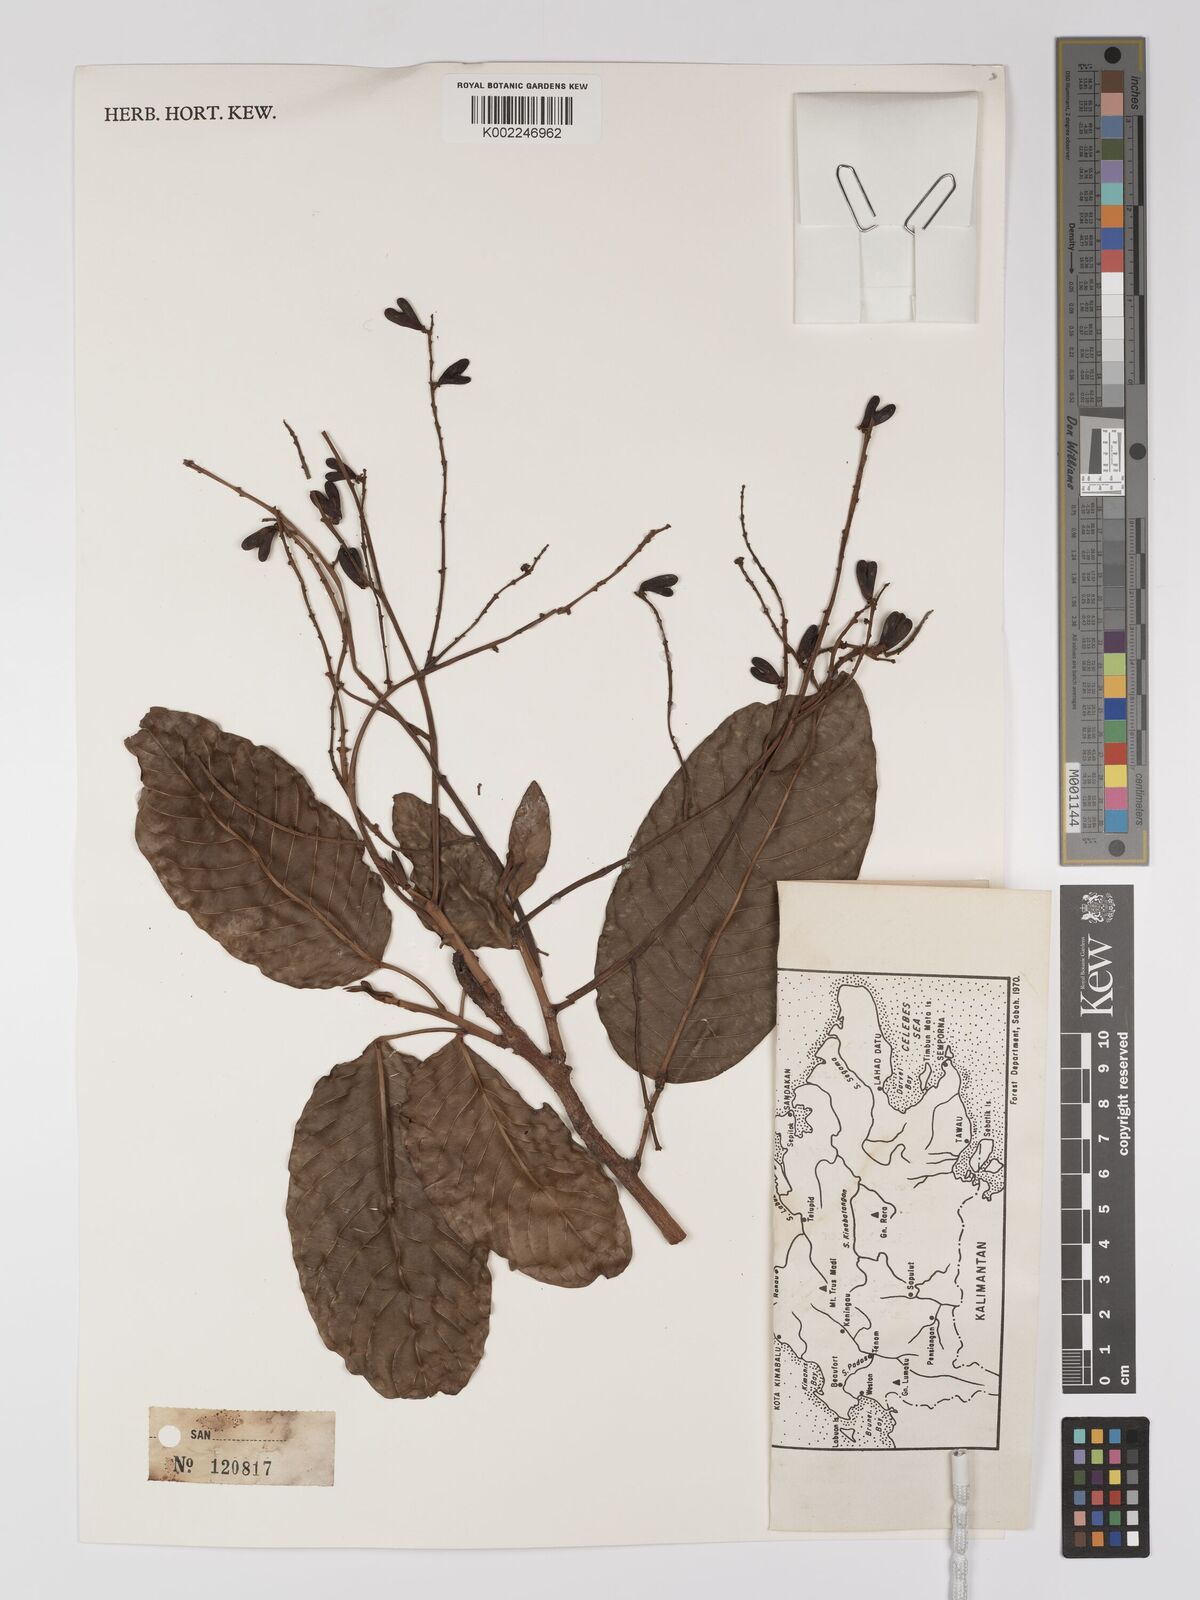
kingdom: Plantae
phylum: Tracheophyta
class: Magnoliopsida
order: Malpighiales
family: Centroplacaceae
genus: Bhesa
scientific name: Bhesa paniculata
